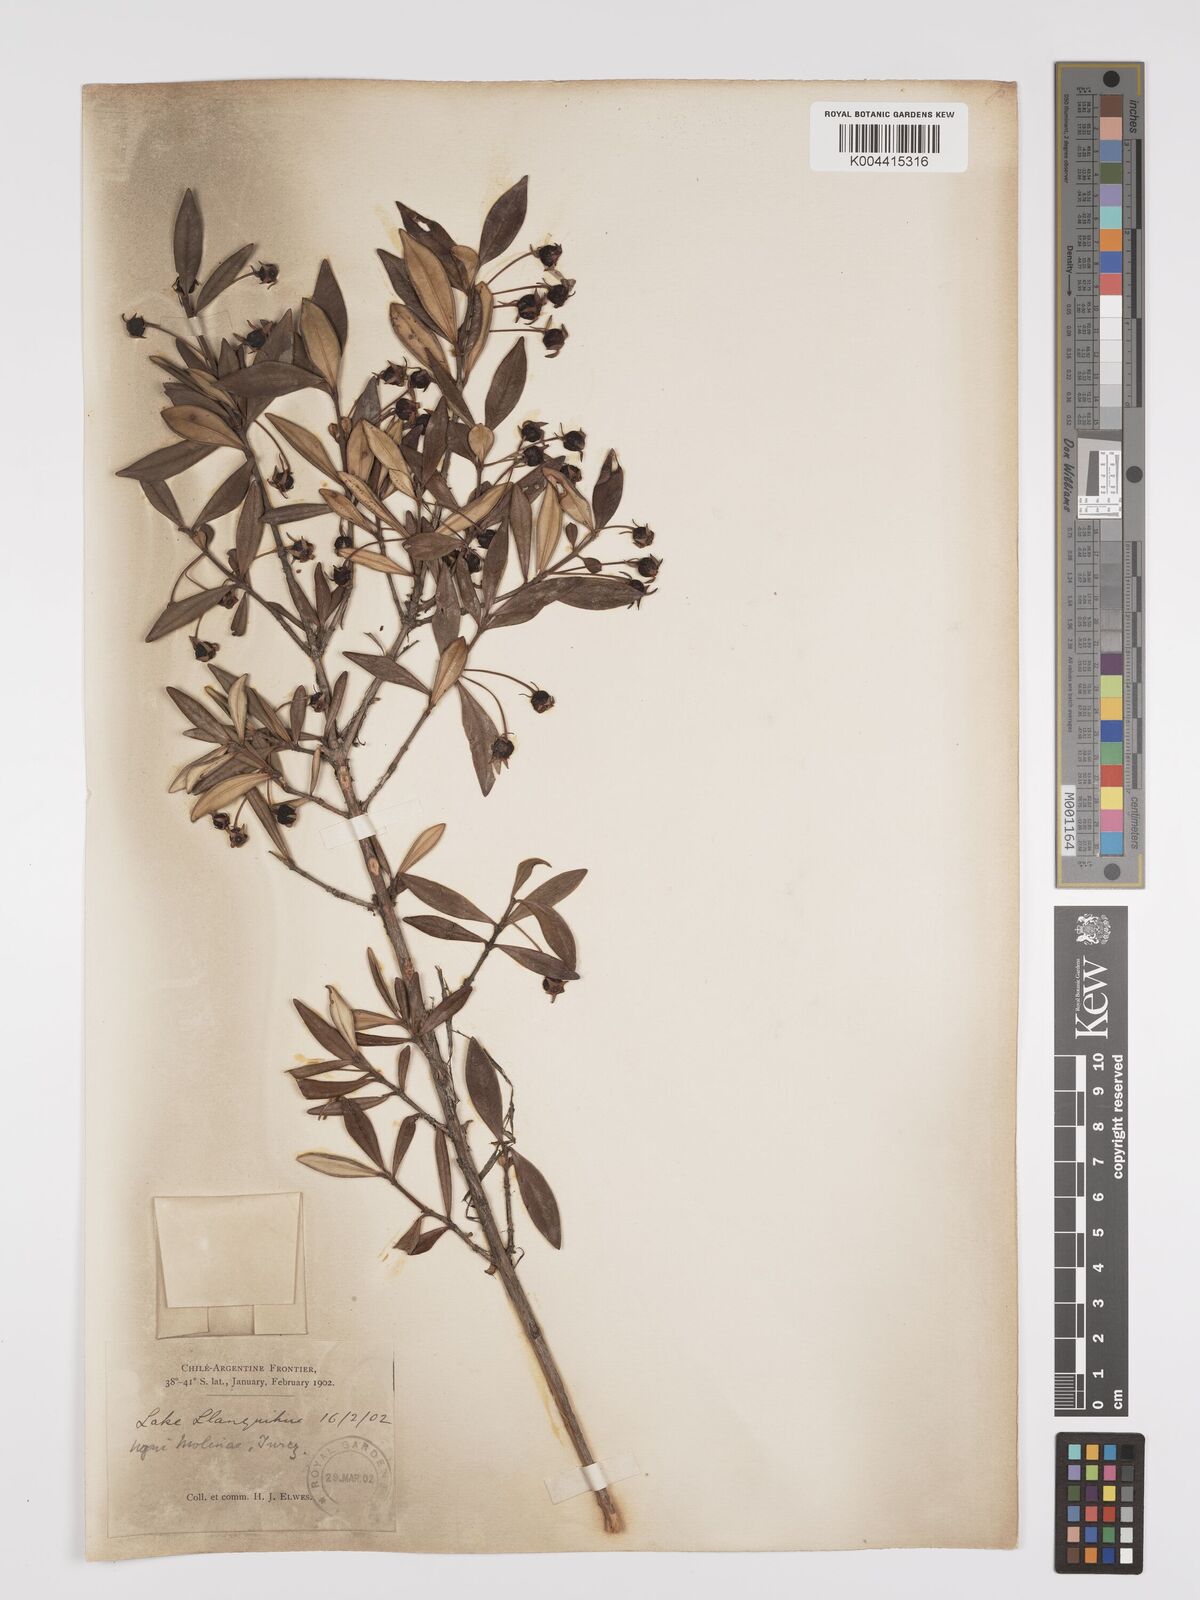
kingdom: Plantae
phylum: Tracheophyta
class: Magnoliopsida
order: Myrtales
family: Myrtaceae
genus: Ugni
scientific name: Ugni molinae
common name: Chilean-guava
